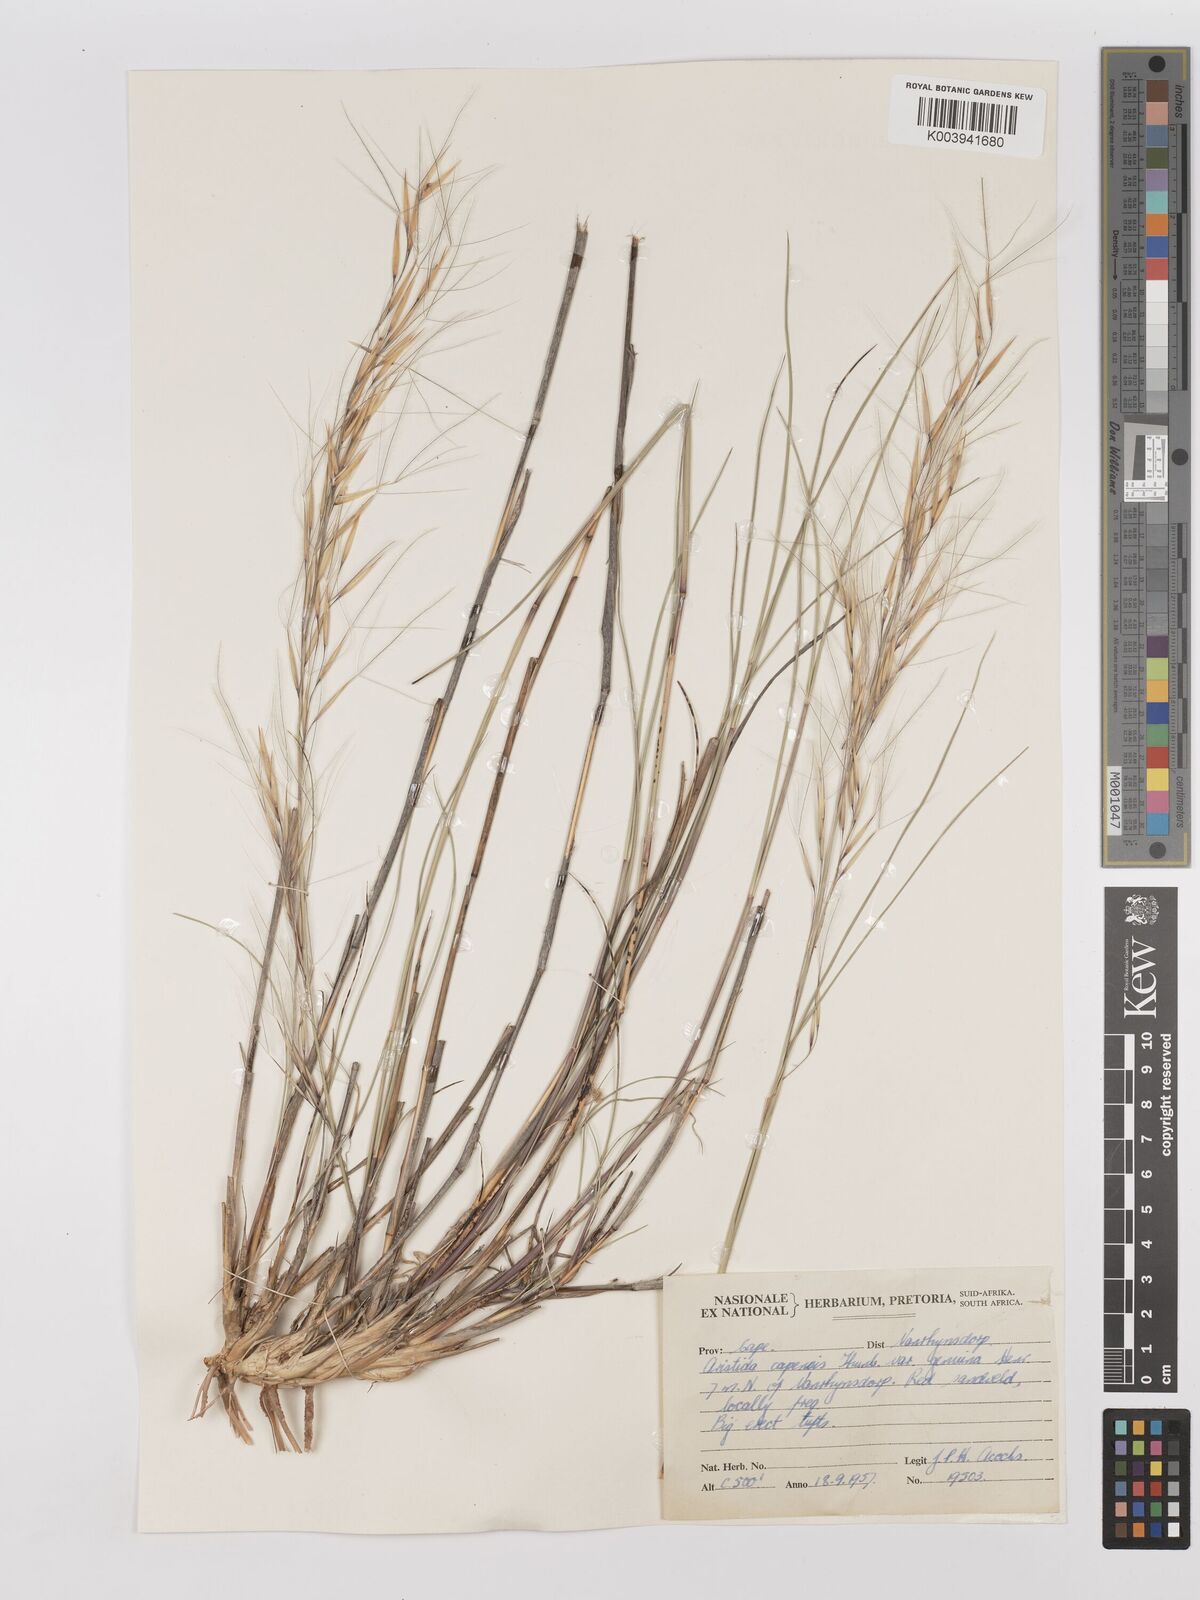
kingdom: Plantae
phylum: Tracheophyta
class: Liliopsida
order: Poales
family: Poaceae
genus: Stipagrostis
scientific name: Stipagrostis ciliata
